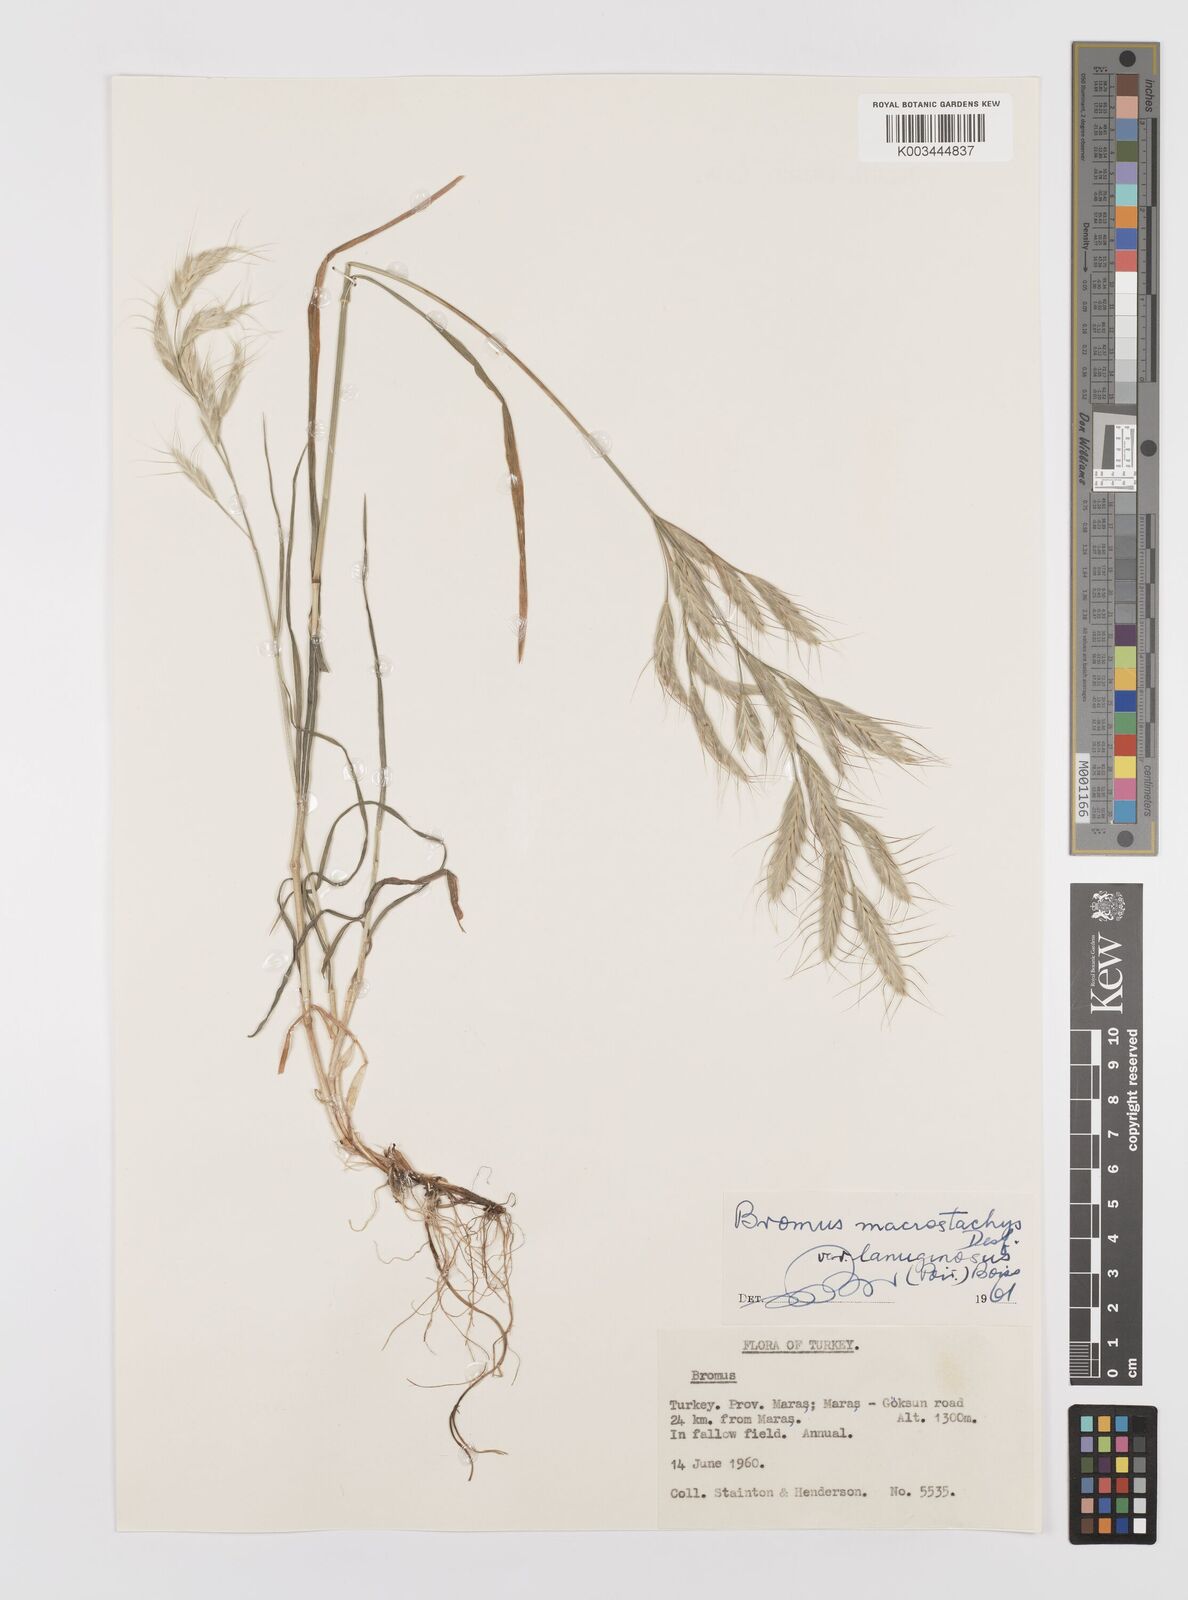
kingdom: Plantae
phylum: Tracheophyta
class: Liliopsida
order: Poales
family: Poaceae
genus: Bromus
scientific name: Bromus lanceolatus
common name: Mediterranean brome
